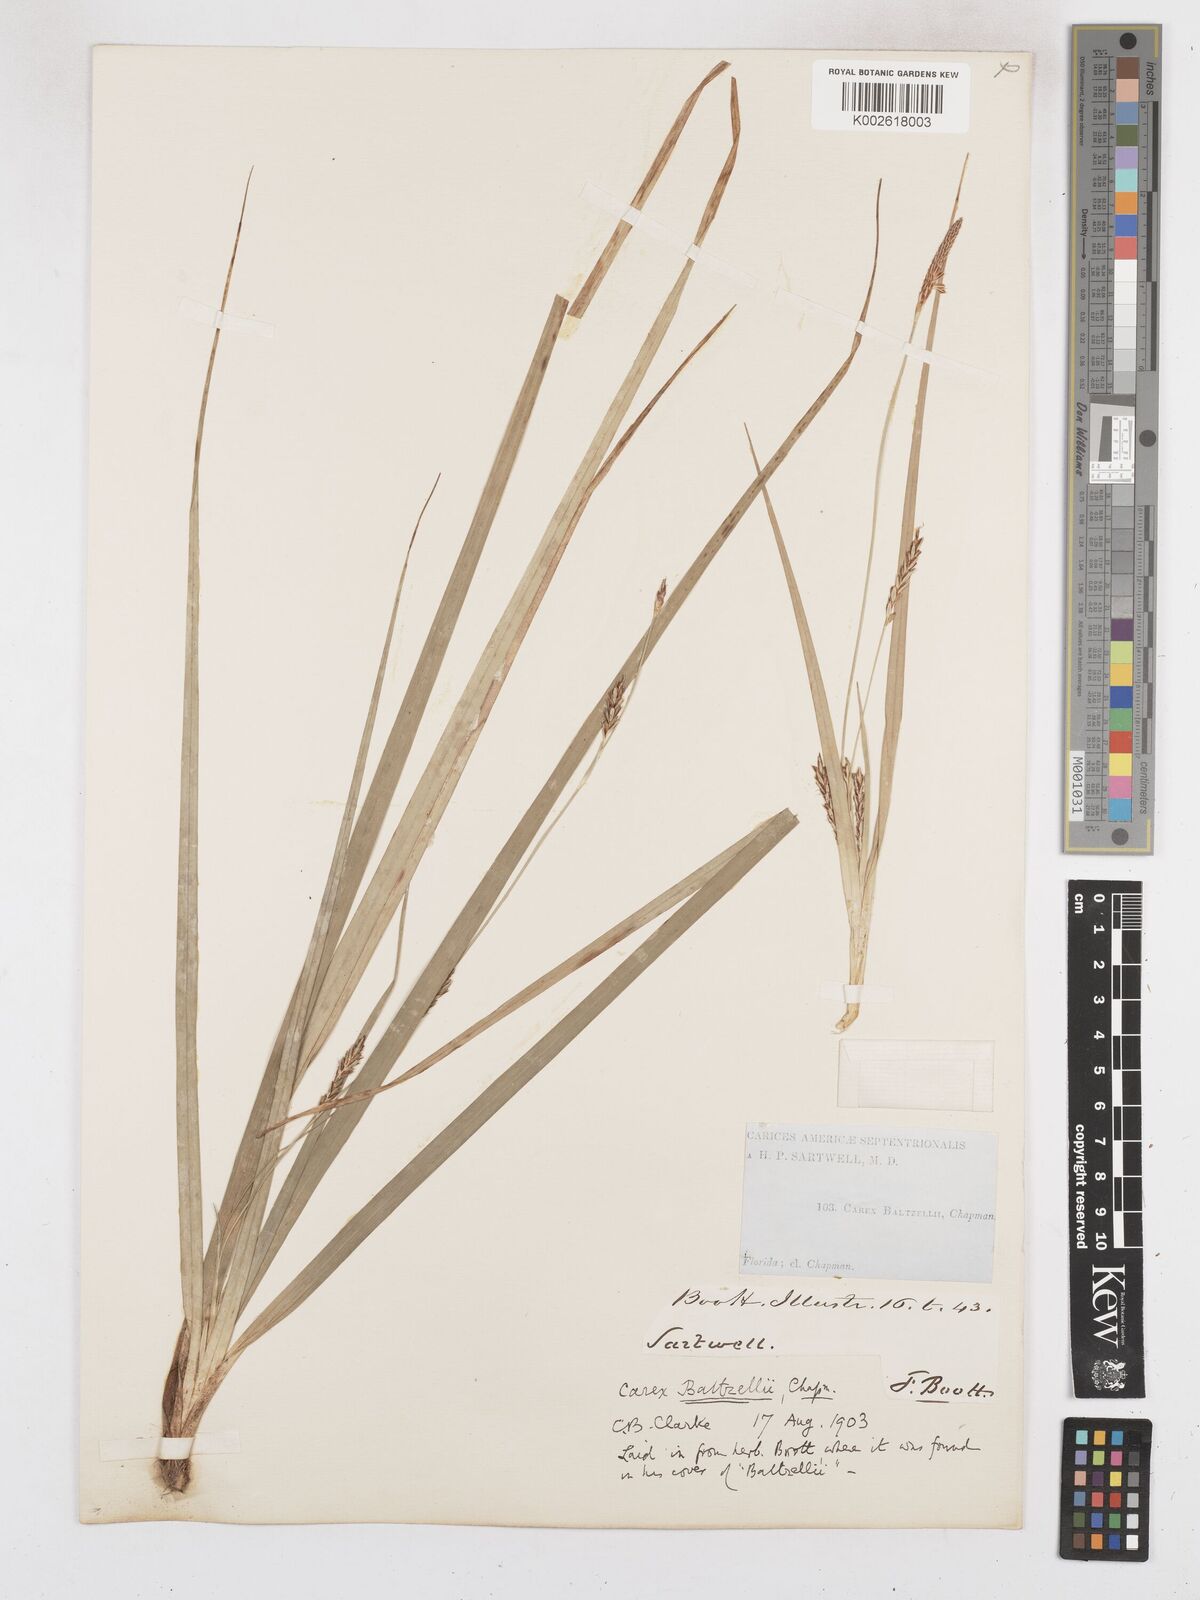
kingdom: Plantae
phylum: Tracheophyta
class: Liliopsida
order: Poales
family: Cyperaceae
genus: Carex
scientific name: Carex baltzellii
